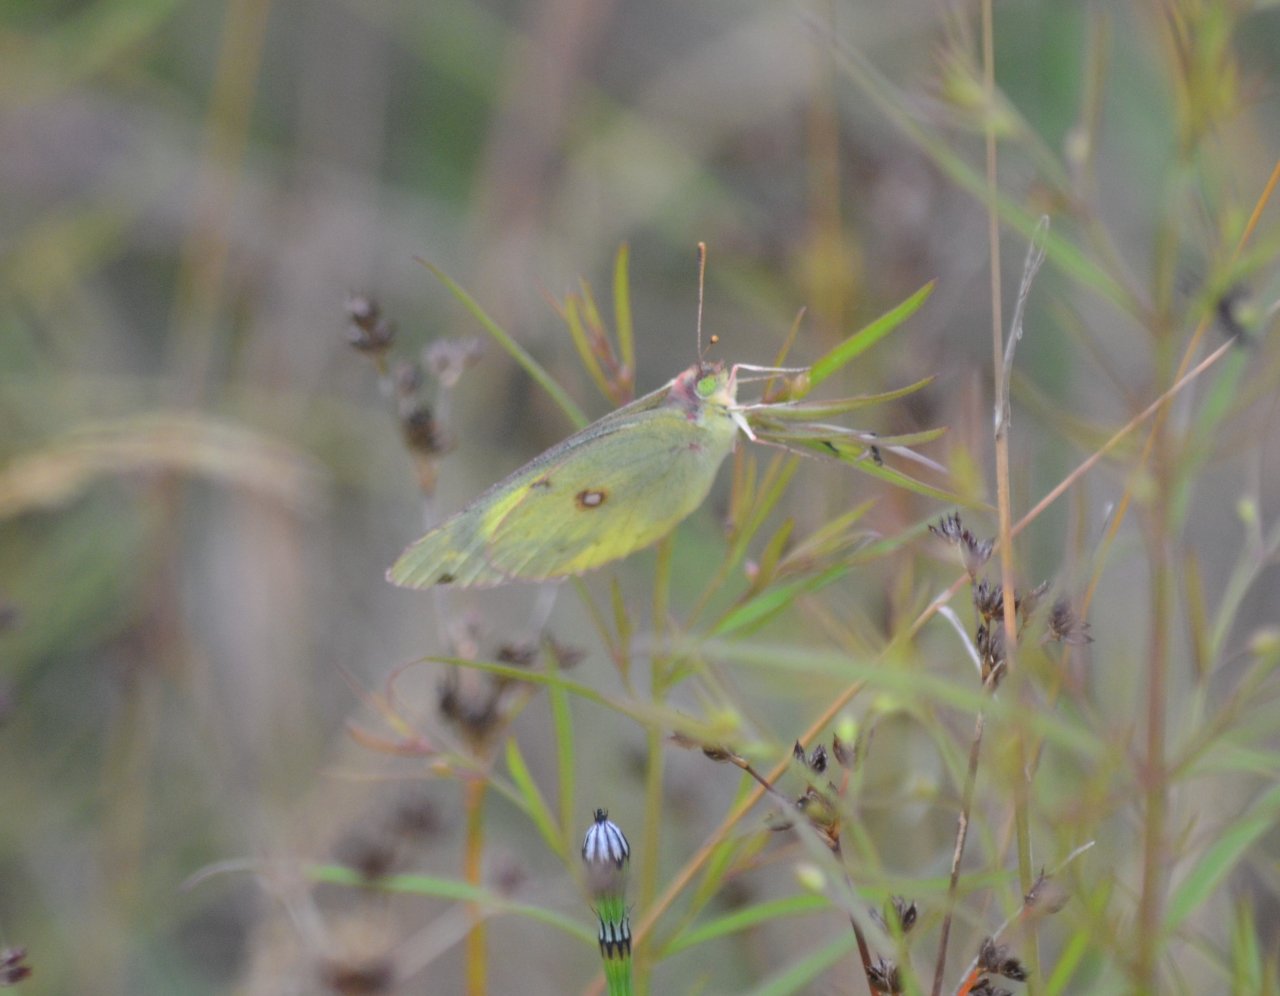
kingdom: Animalia
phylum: Arthropoda
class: Insecta
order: Lepidoptera
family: Pieridae
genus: Colias
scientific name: Colias philodice
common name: Clouded Sulphur
